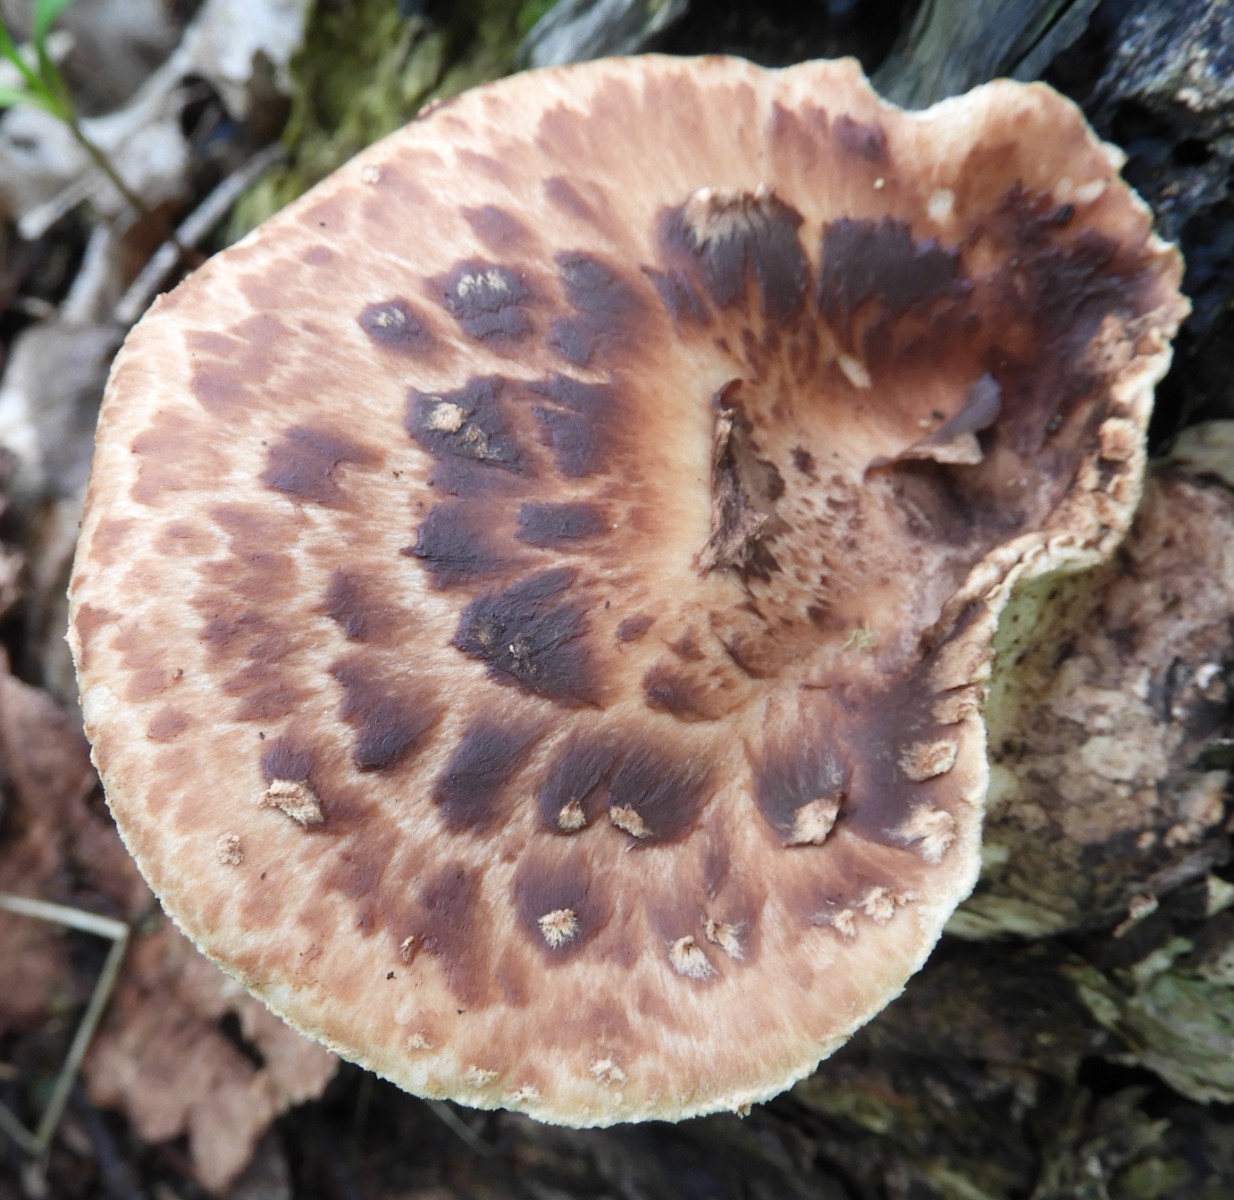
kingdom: Fungi
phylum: Basidiomycota
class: Agaricomycetes
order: Polyporales
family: Polyporaceae
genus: Cerioporus
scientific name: Cerioporus squamosus
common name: skællet stilkporesvamp
